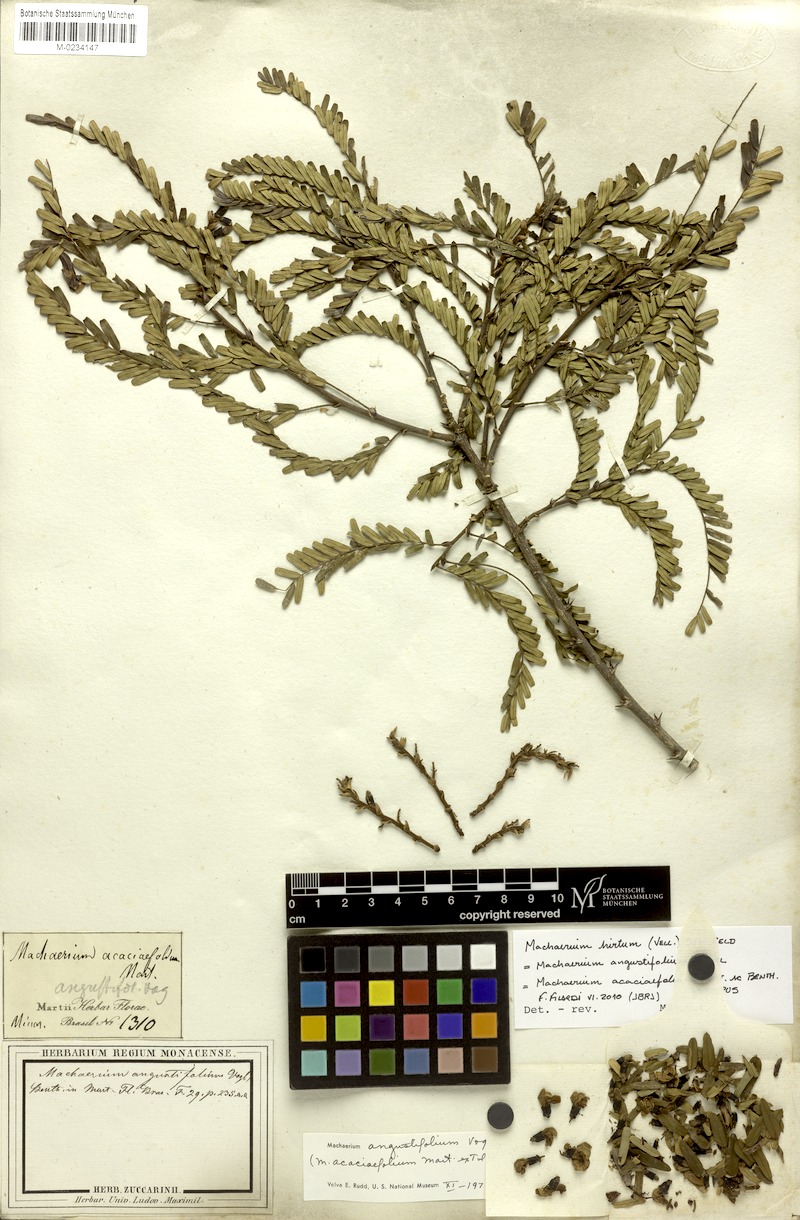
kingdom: Plantae
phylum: Tracheophyta
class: Magnoliopsida
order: Fabales
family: Fabaceae
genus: Machaerium
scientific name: Machaerium hirtum
